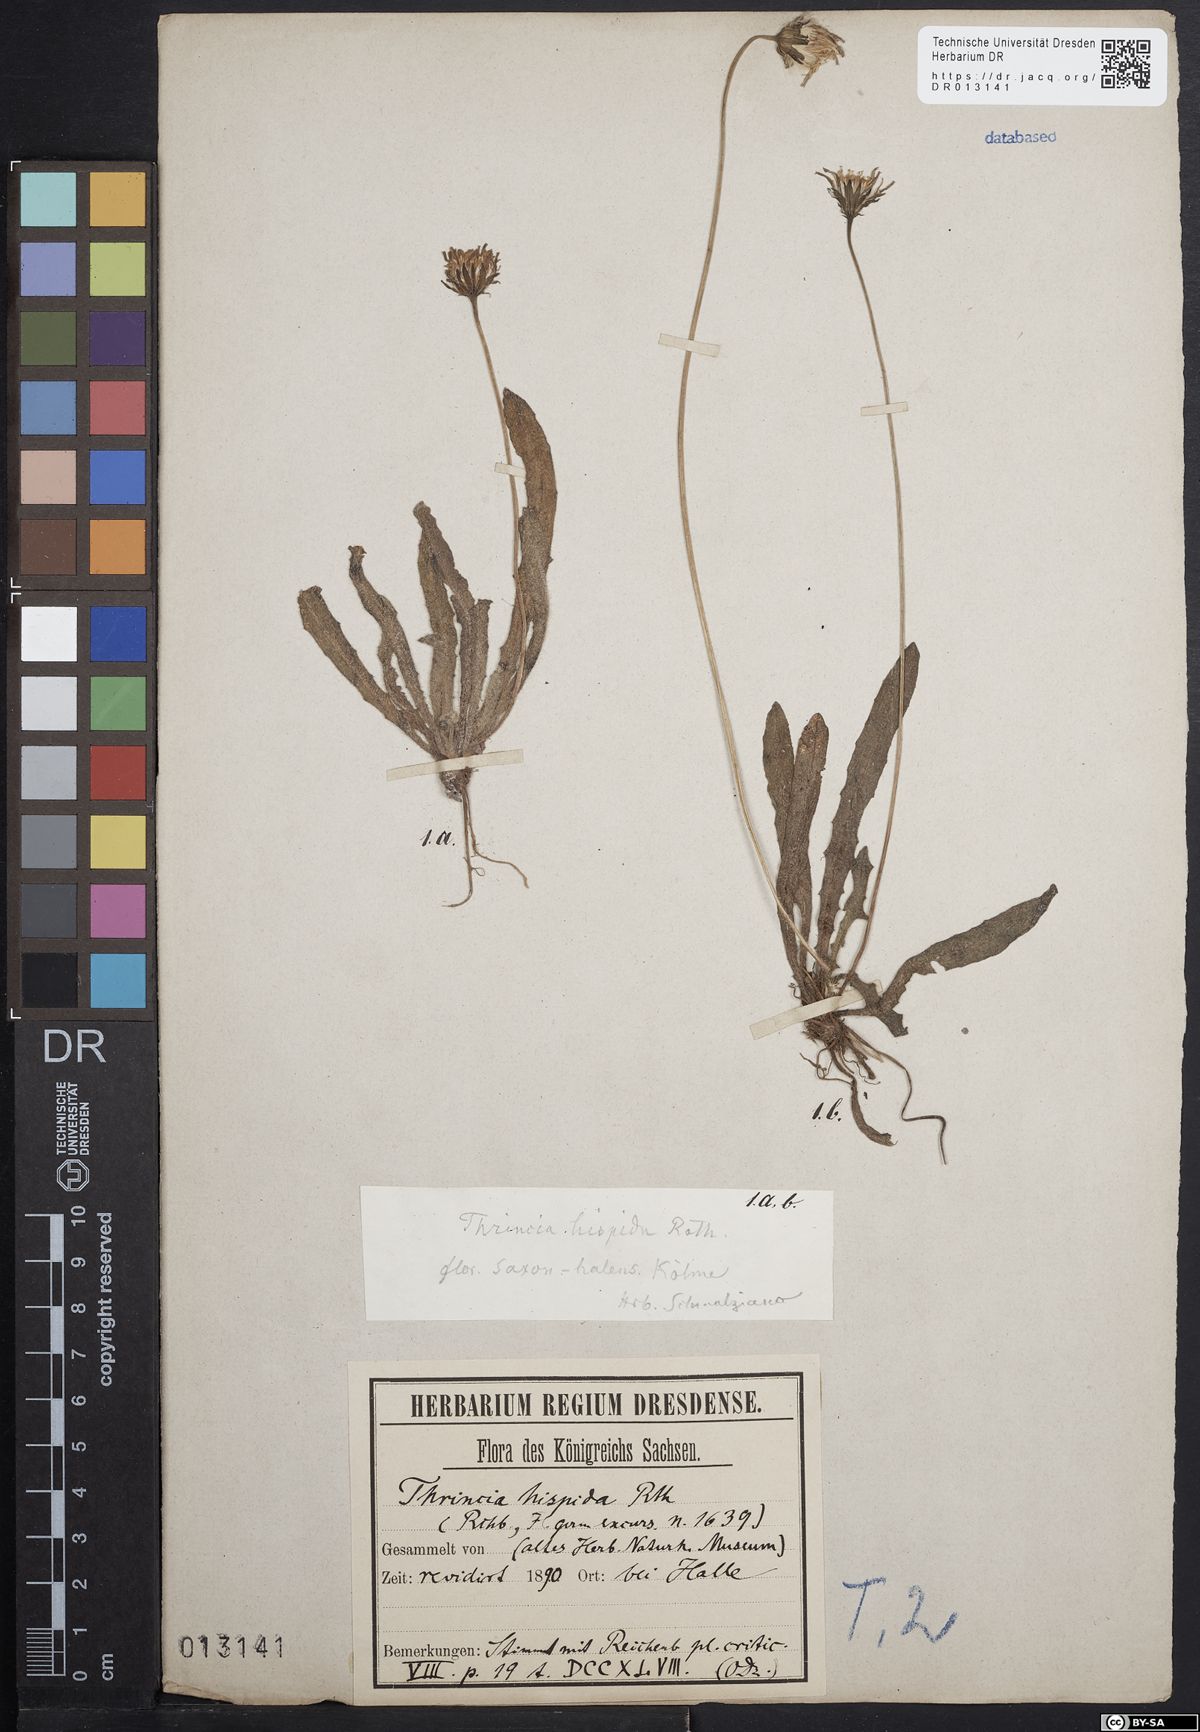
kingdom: Plantae
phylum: Tracheophyta
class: Magnoliopsida
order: Asterales
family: Asteraceae
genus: Thrincia
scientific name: Thrincia saxatilis
